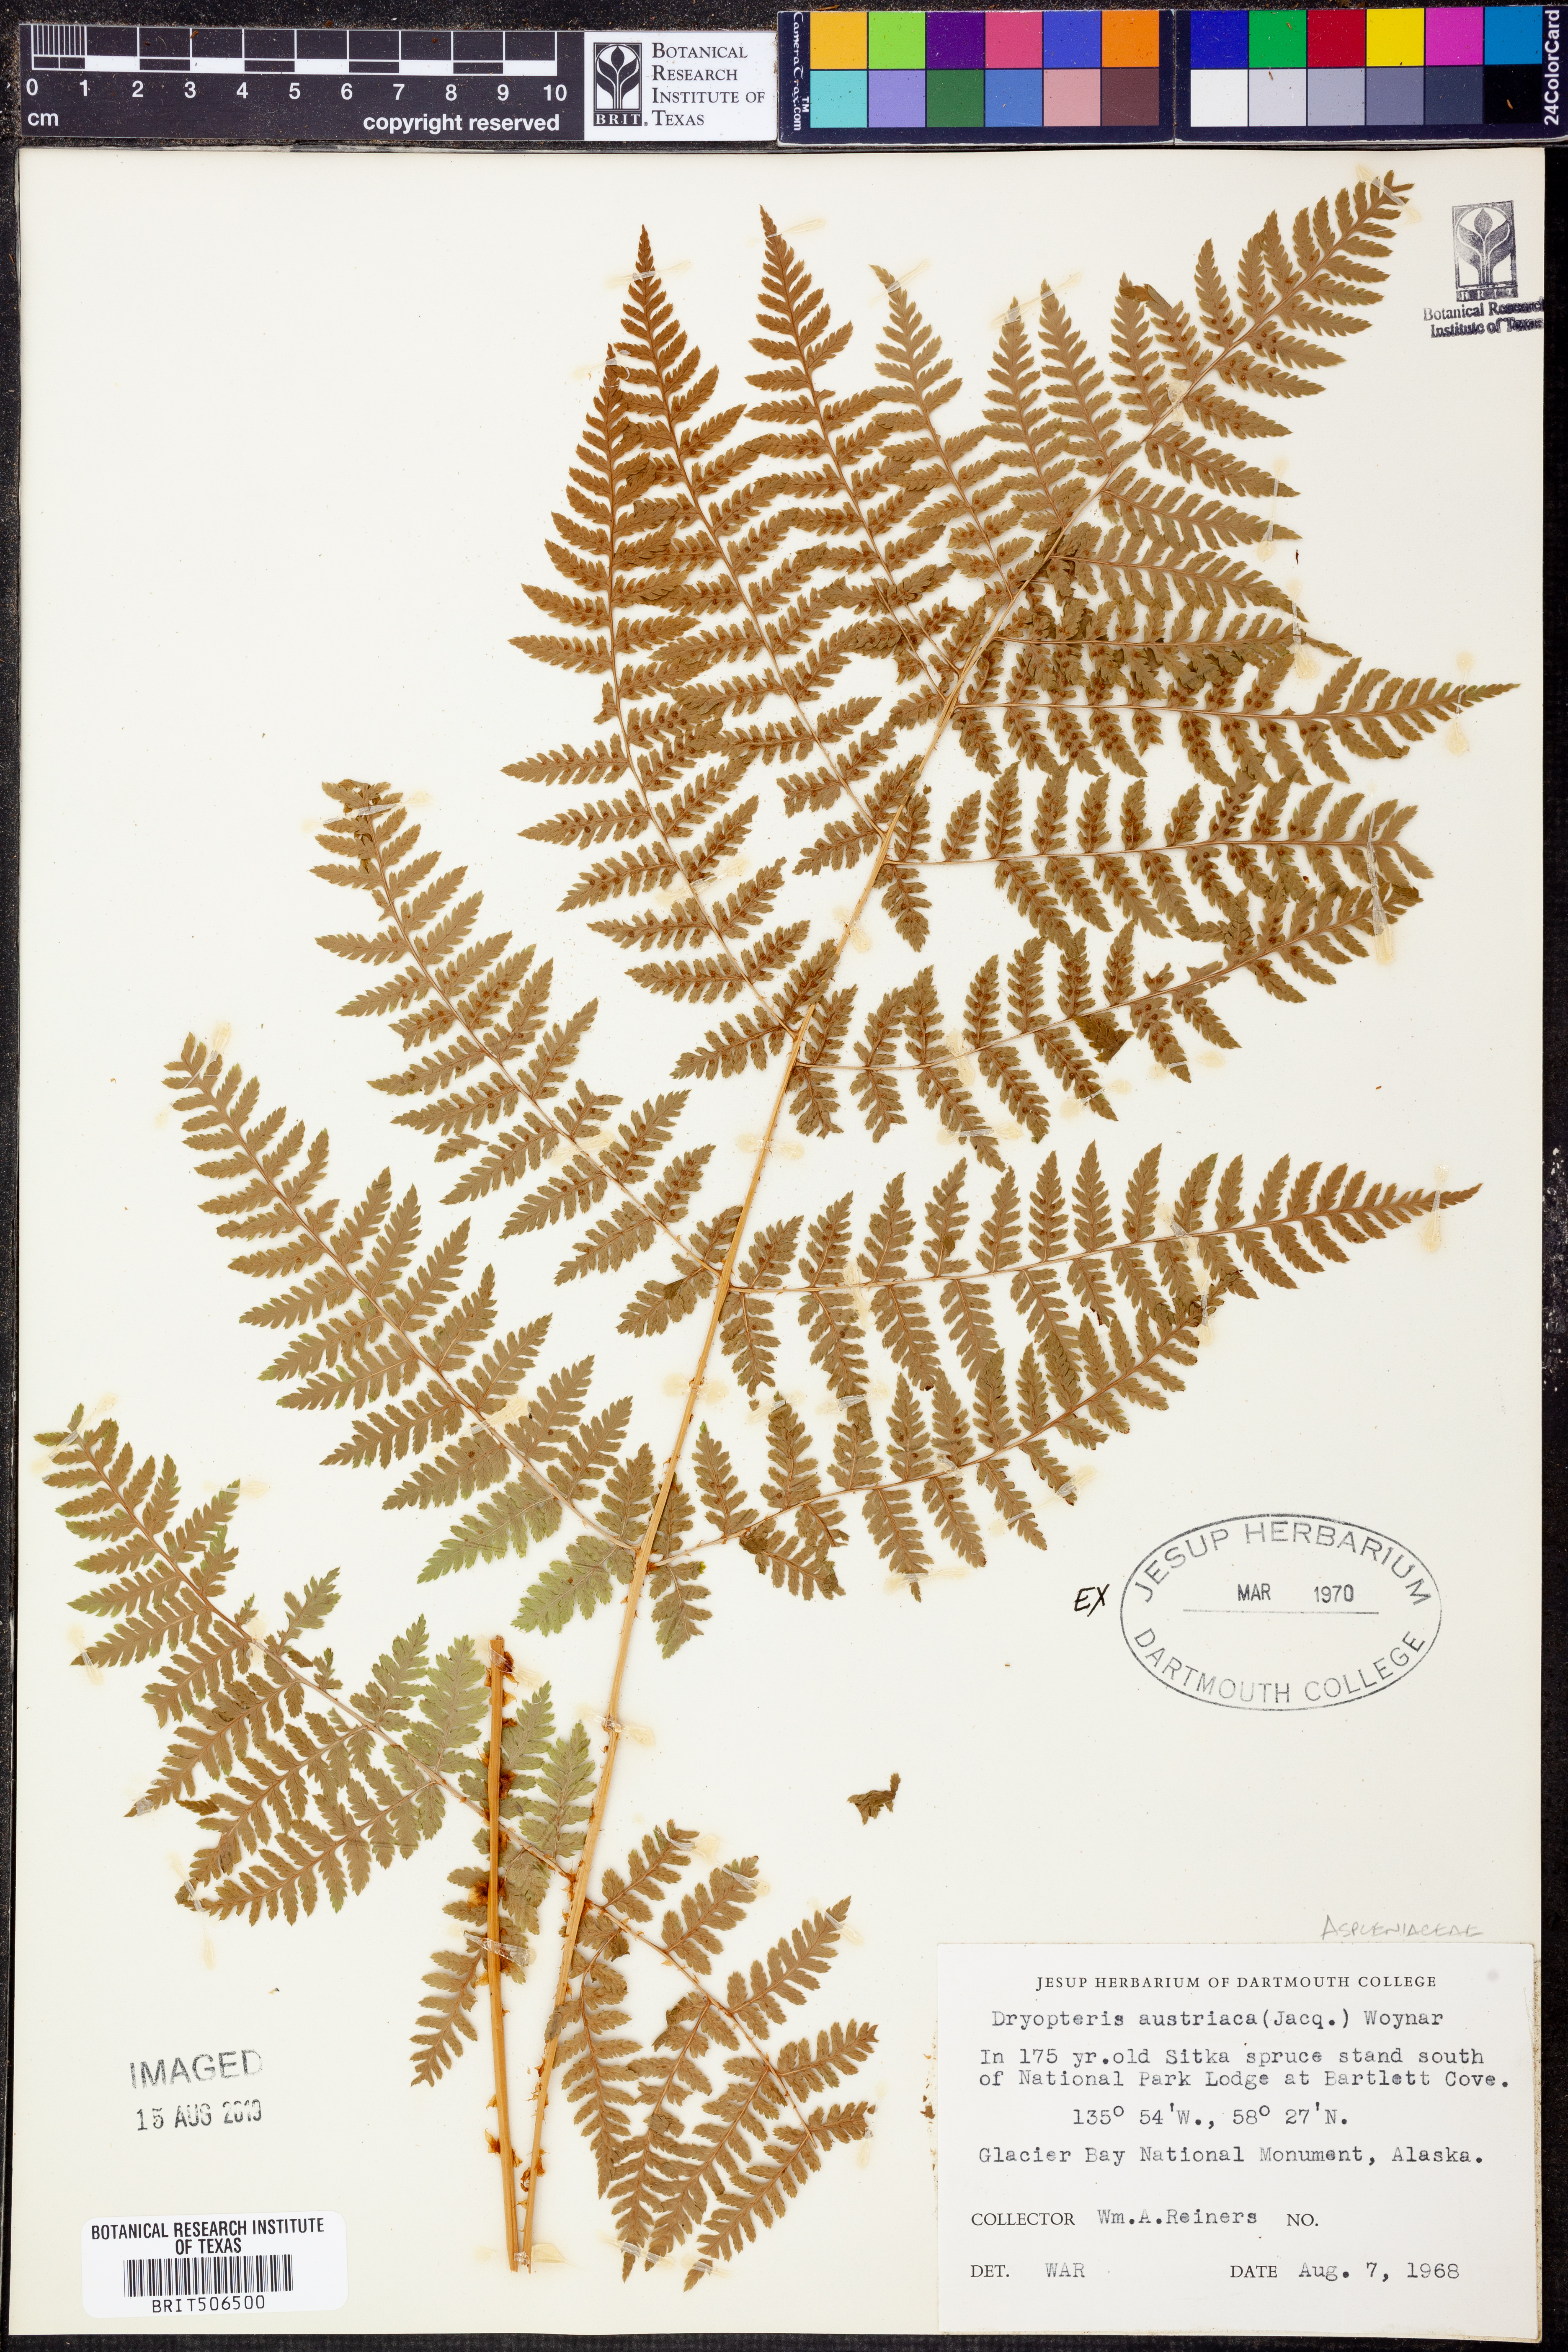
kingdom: Plantae
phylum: Tracheophyta
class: Polypodiopsida
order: Polypodiales
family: Dryopteridaceae
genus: Dryopteris
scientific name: Dryopteris dilatata
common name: Broad buckler-fern
